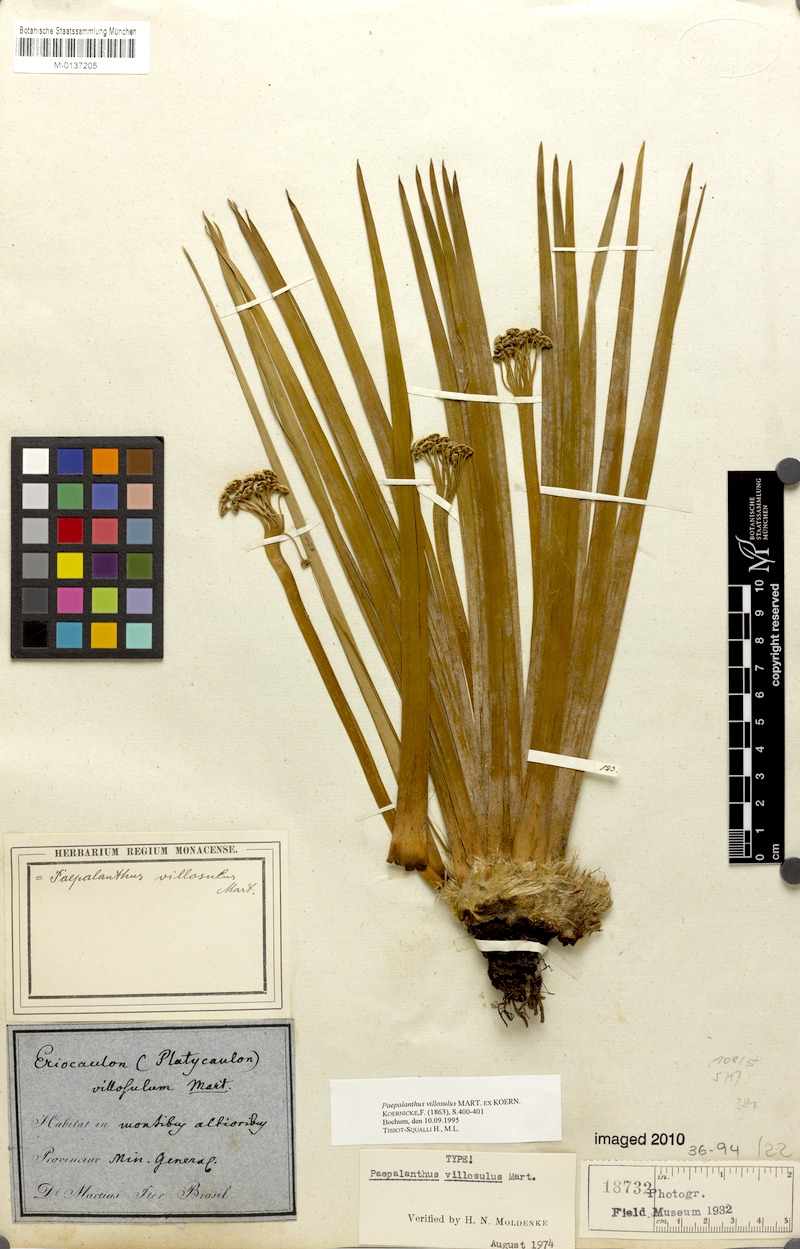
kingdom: Plantae
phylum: Tracheophyta
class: Liliopsida
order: Poales
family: Eriocaulaceae
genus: Paepalanthus
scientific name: Paepalanthus villosulus
